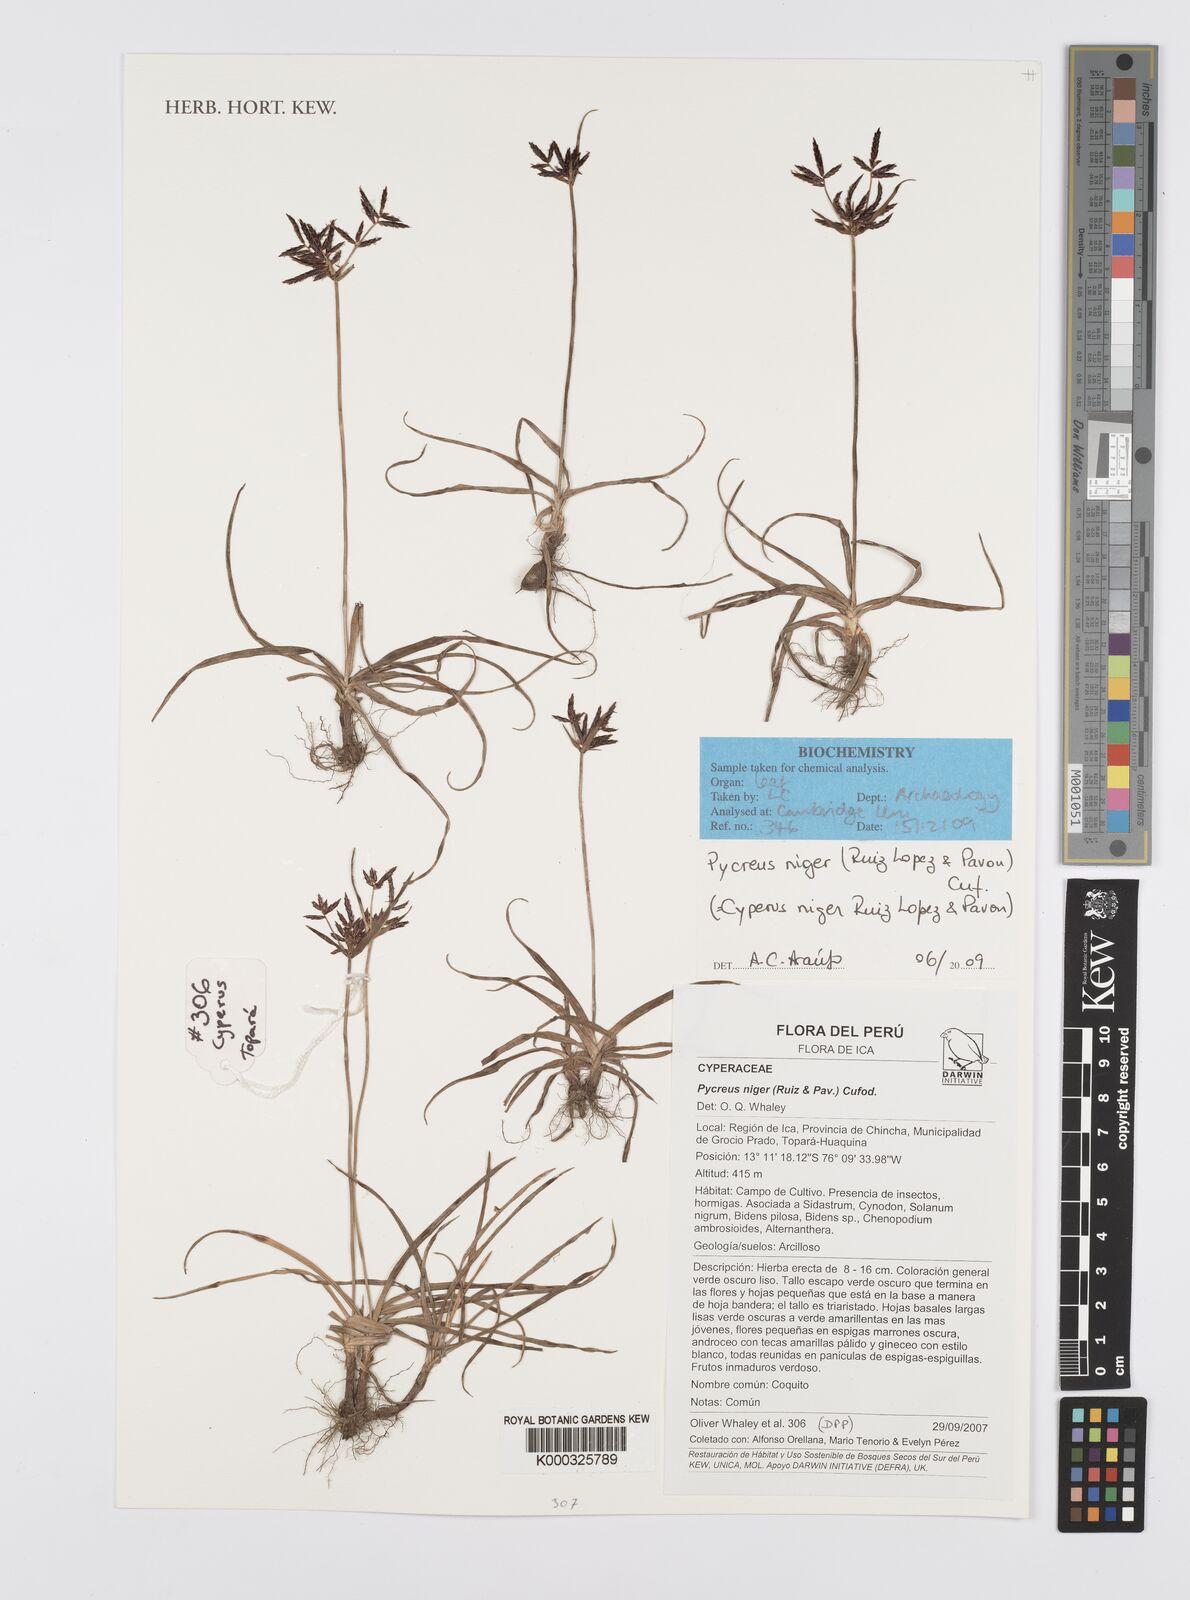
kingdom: Plantae
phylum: Tracheophyta
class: Liliopsida
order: Poales
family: Cyperaceae
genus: Cyperus
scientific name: Cyperus melanostachyus
